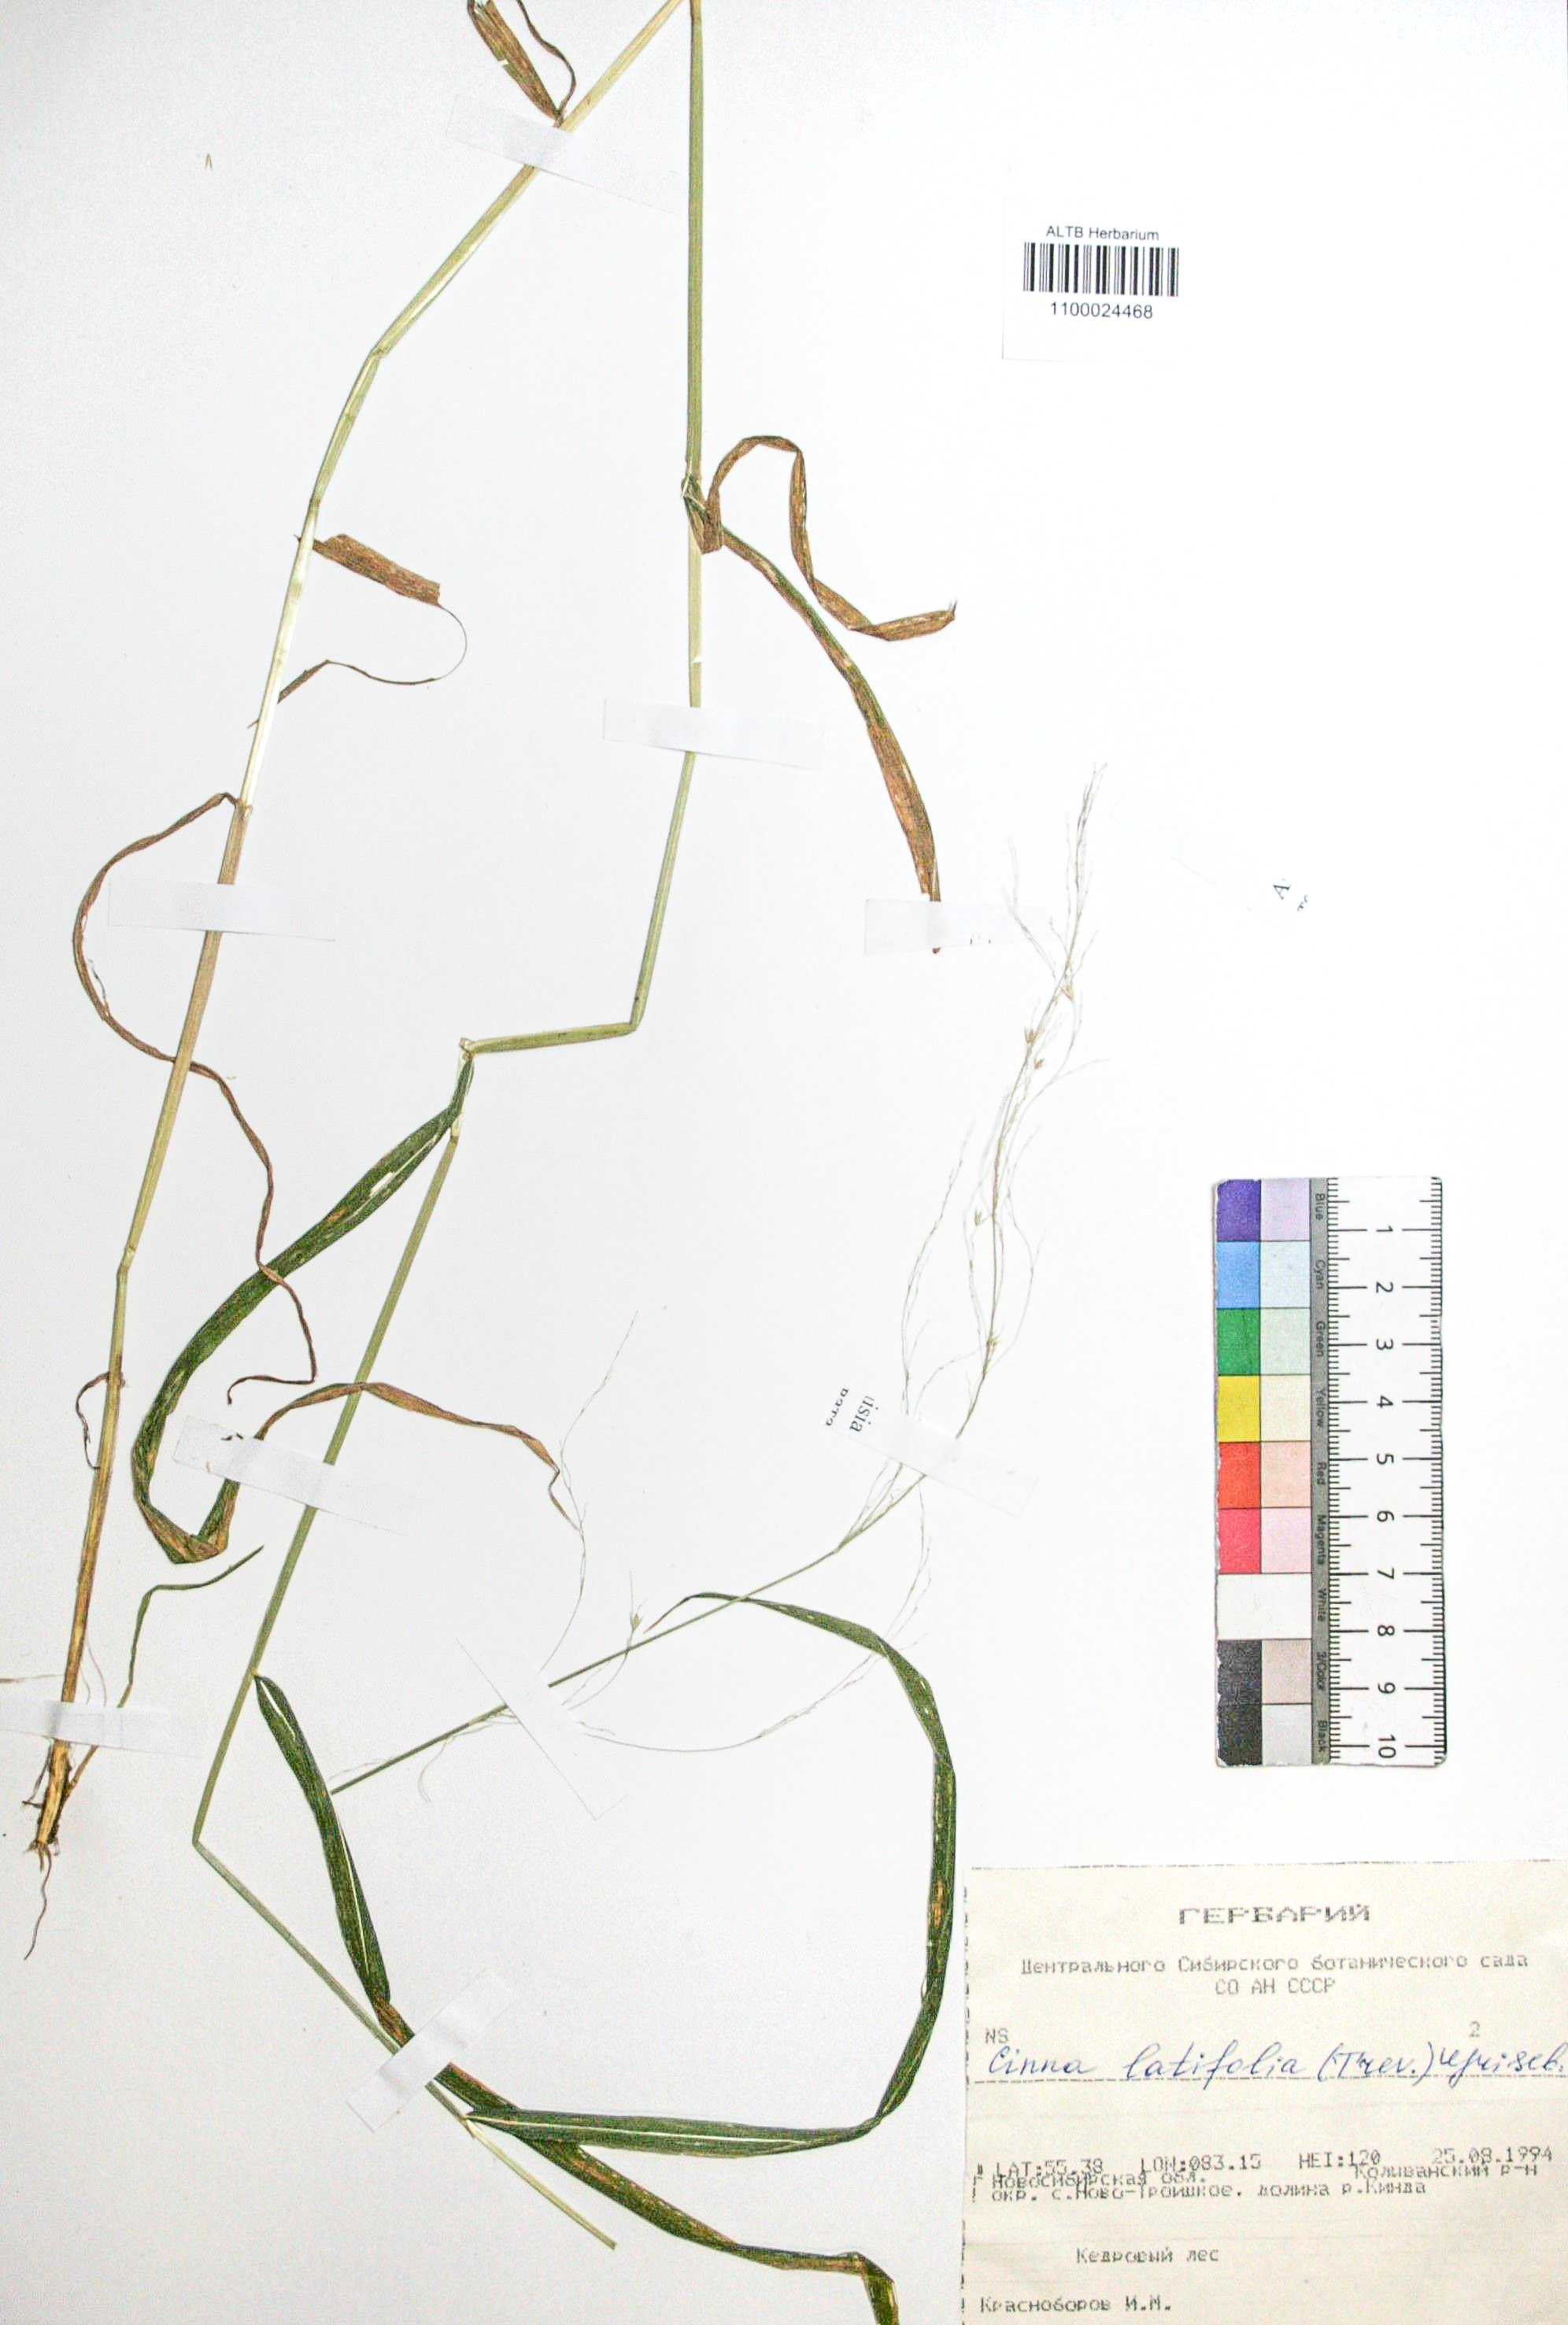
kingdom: Plantae
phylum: Tracheophyta
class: Liliopsida
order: Poales
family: Poaceae
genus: Cinna
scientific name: Cinna latifolia
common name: Drooping woodreed
